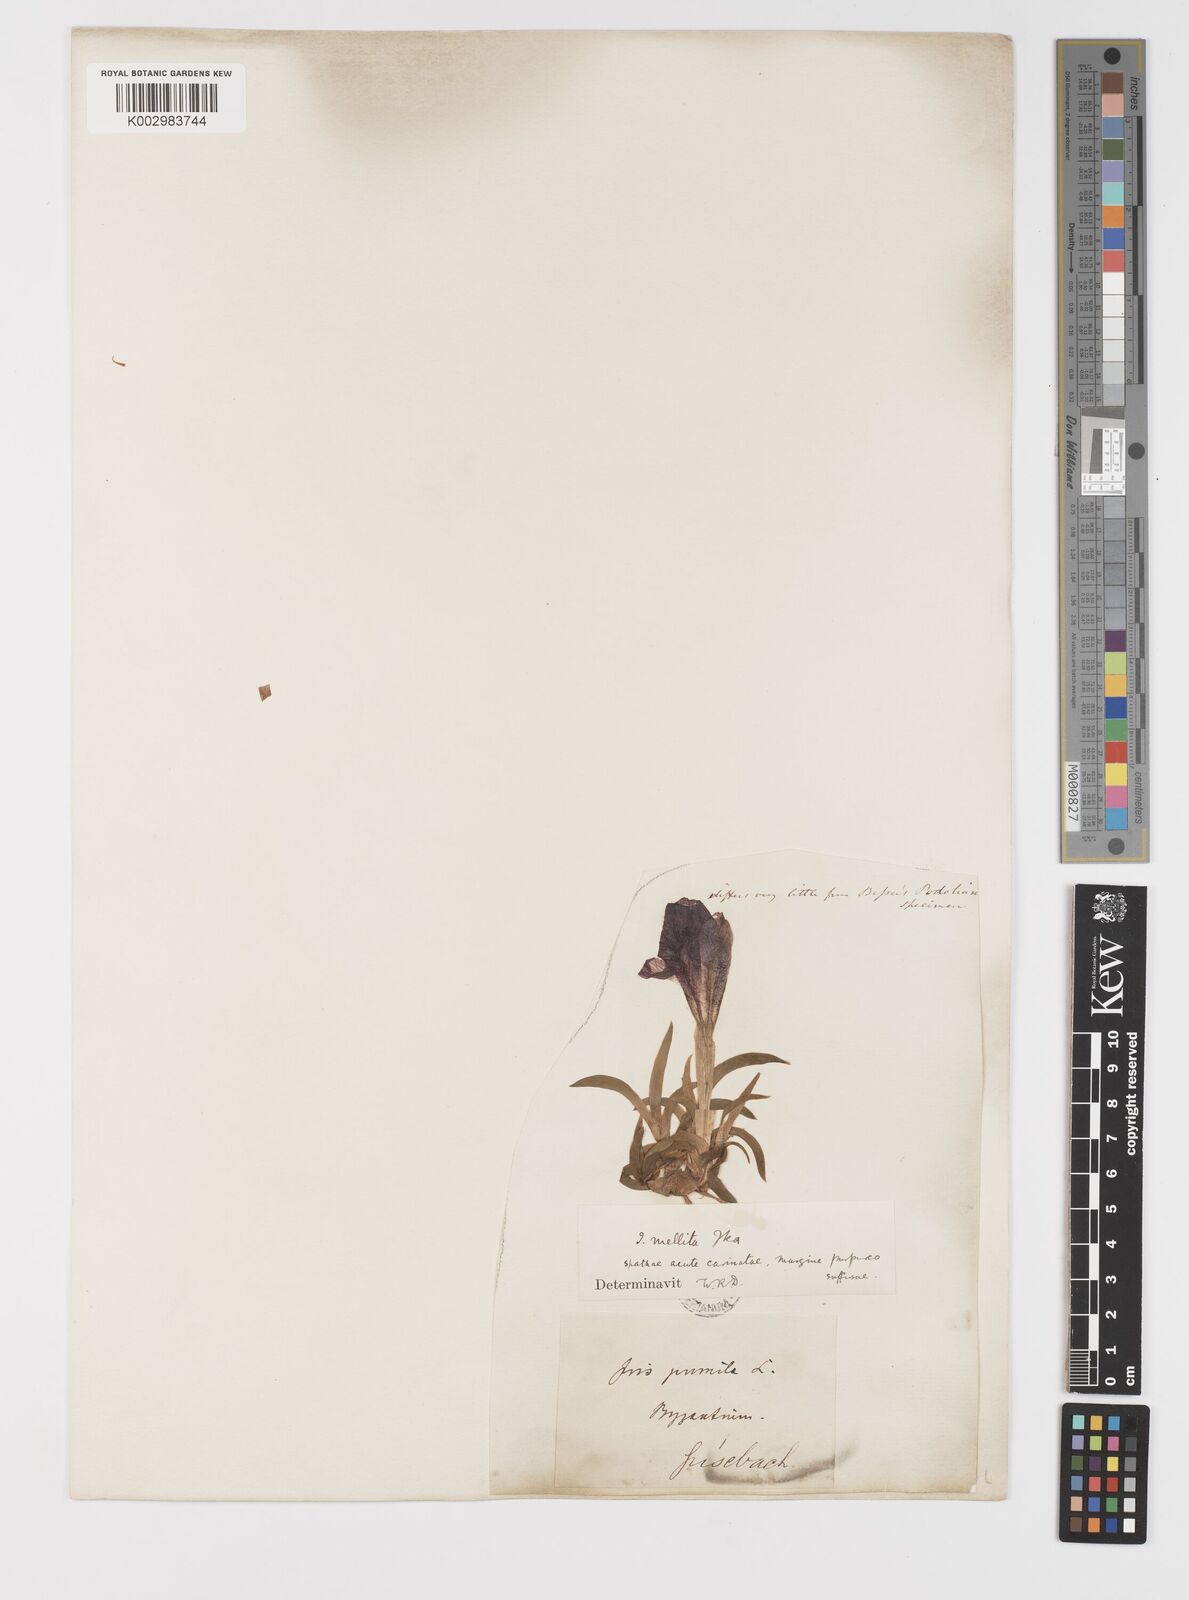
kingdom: Plantae
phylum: Tracheophyta
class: Liliopsida
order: Asparagales
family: Iridaceae
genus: Iris
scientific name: Iris suaveolens
